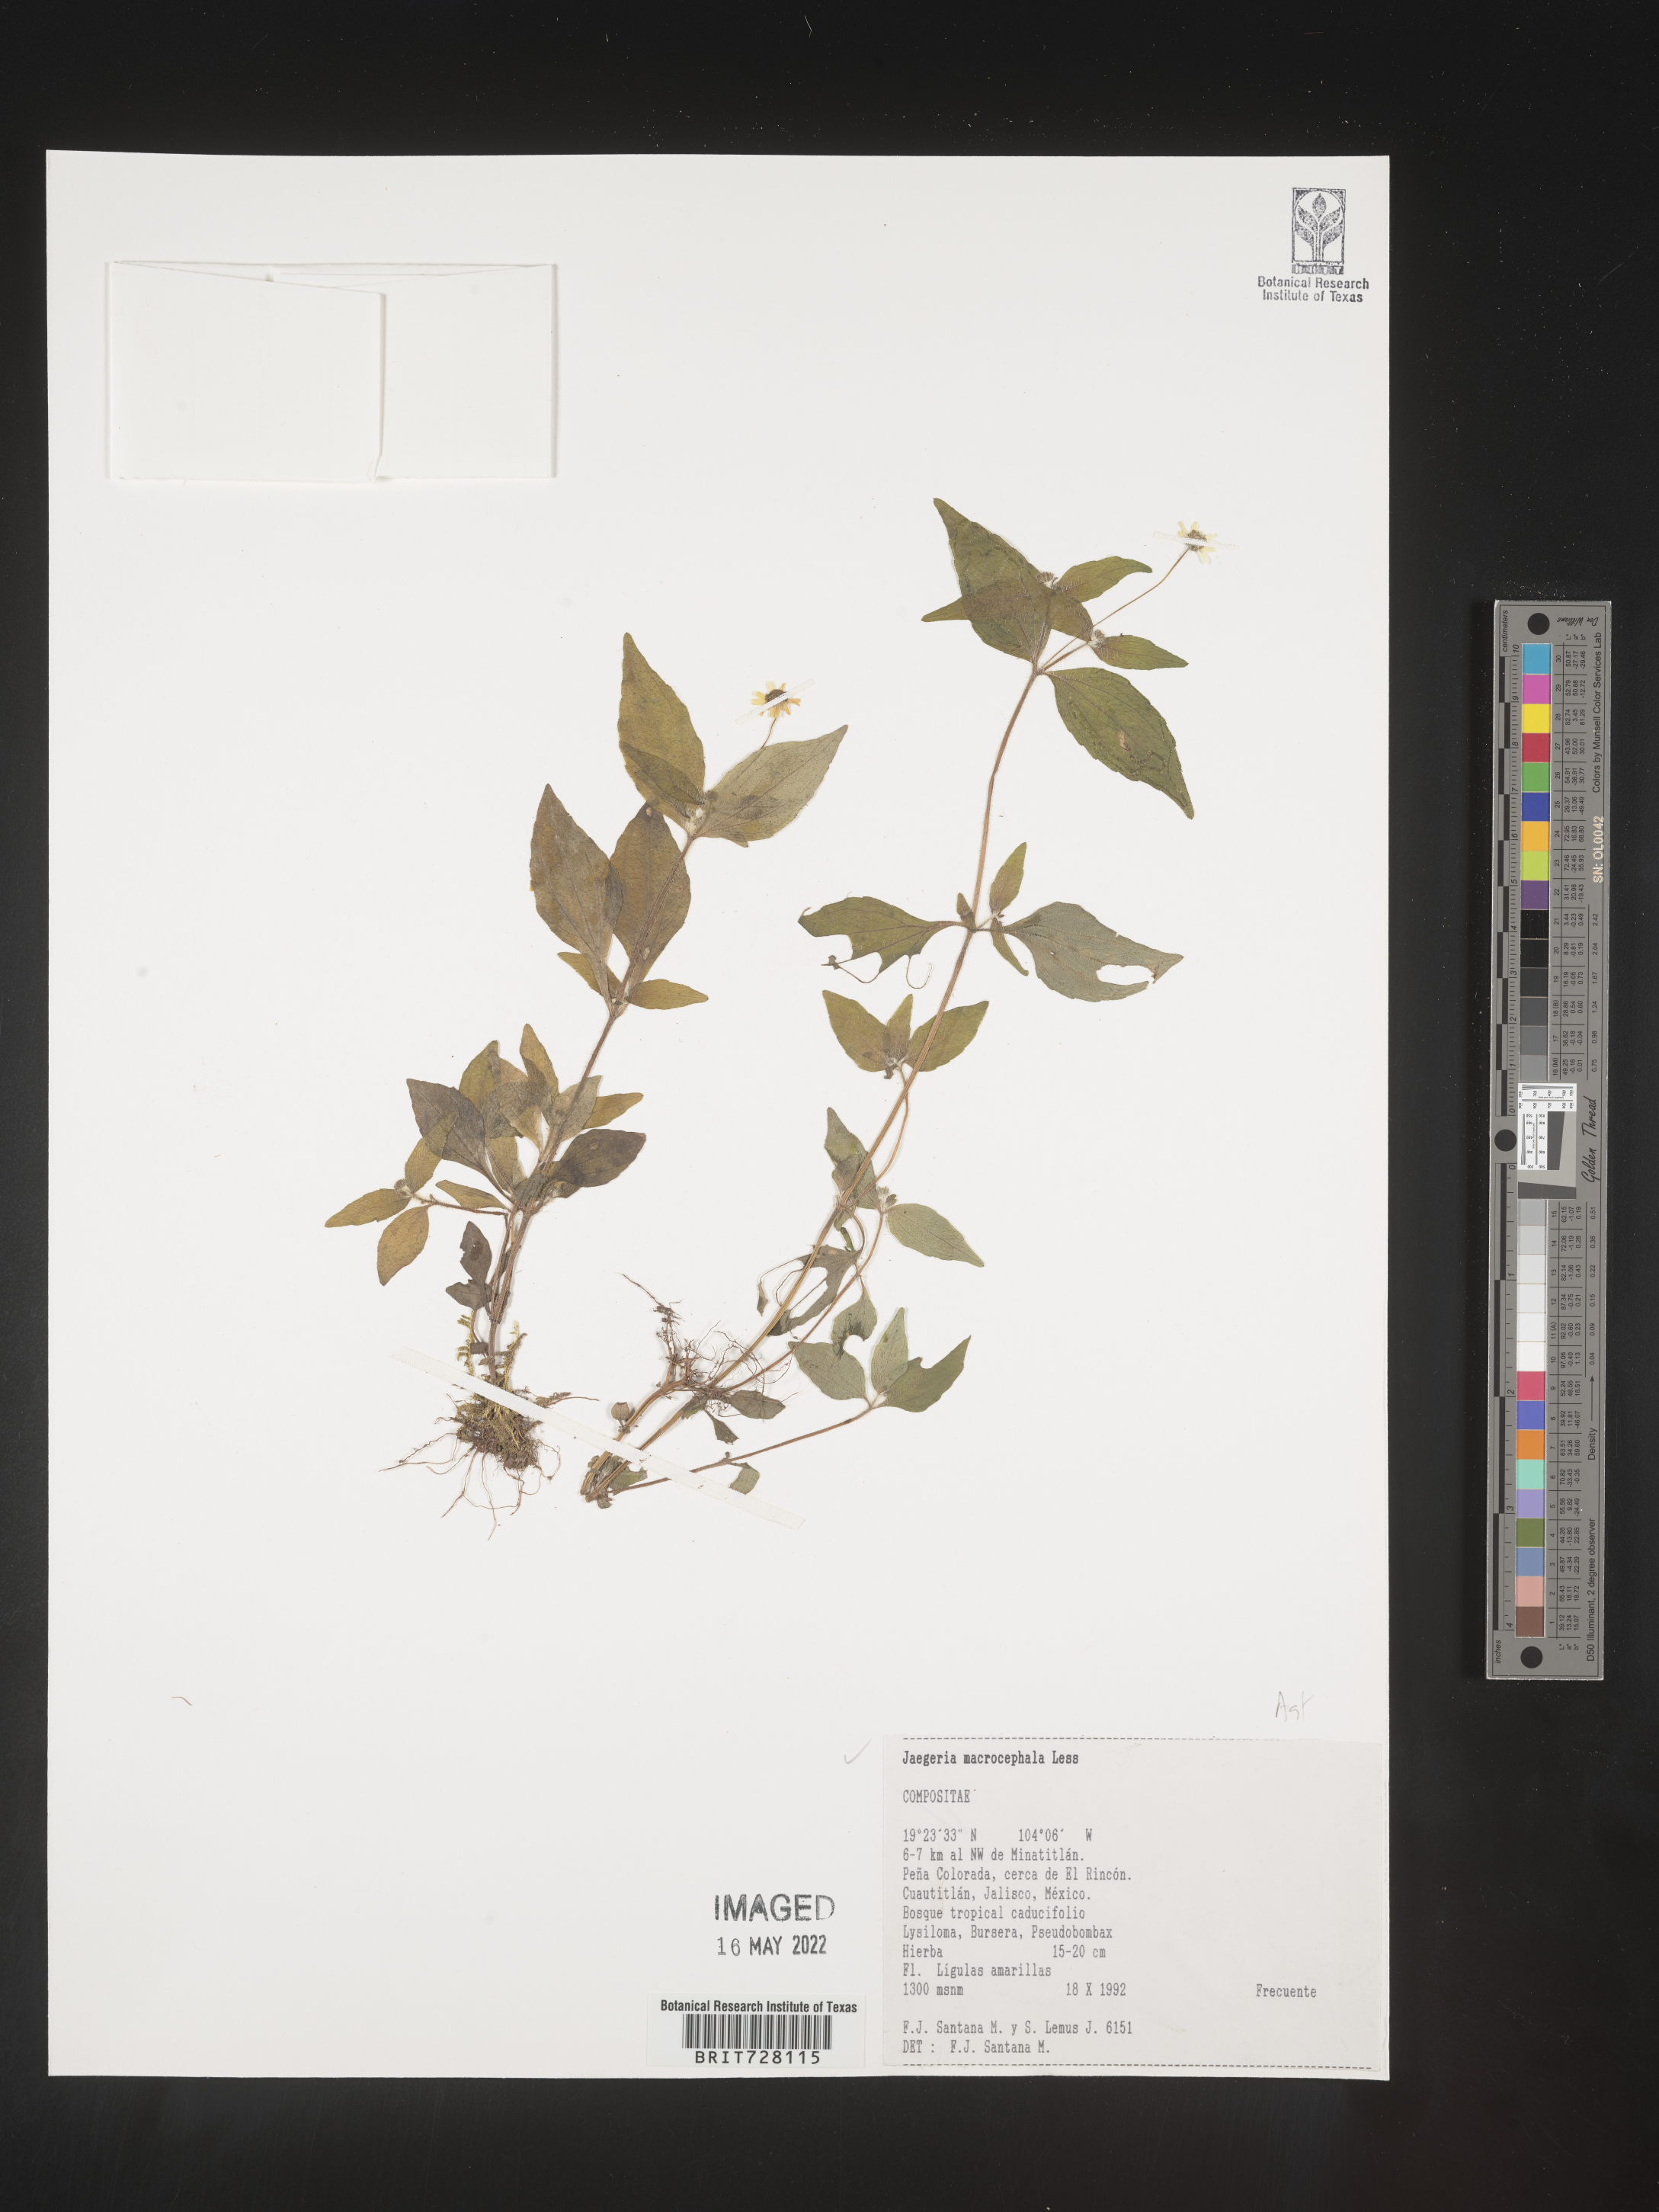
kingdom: Plantae
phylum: Tracheophyta
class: Magnoliopsida
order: Asterales
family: Asteraceae
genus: Jaegeria
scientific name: Jaegeria
